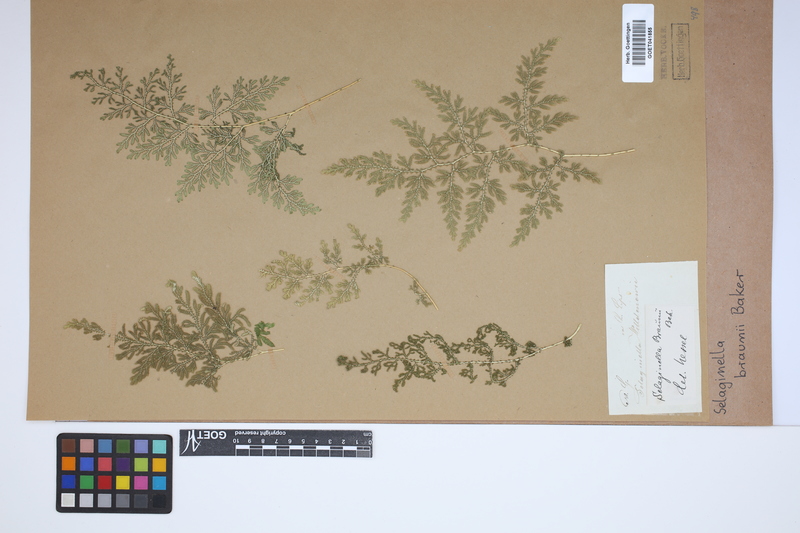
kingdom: Plantae
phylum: Tracheophyta
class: Lycopodiopsida
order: Selaginellales
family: Selaginellaceae
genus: Selaginella
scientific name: Selaginella braunii
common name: Braun's spikemoss
